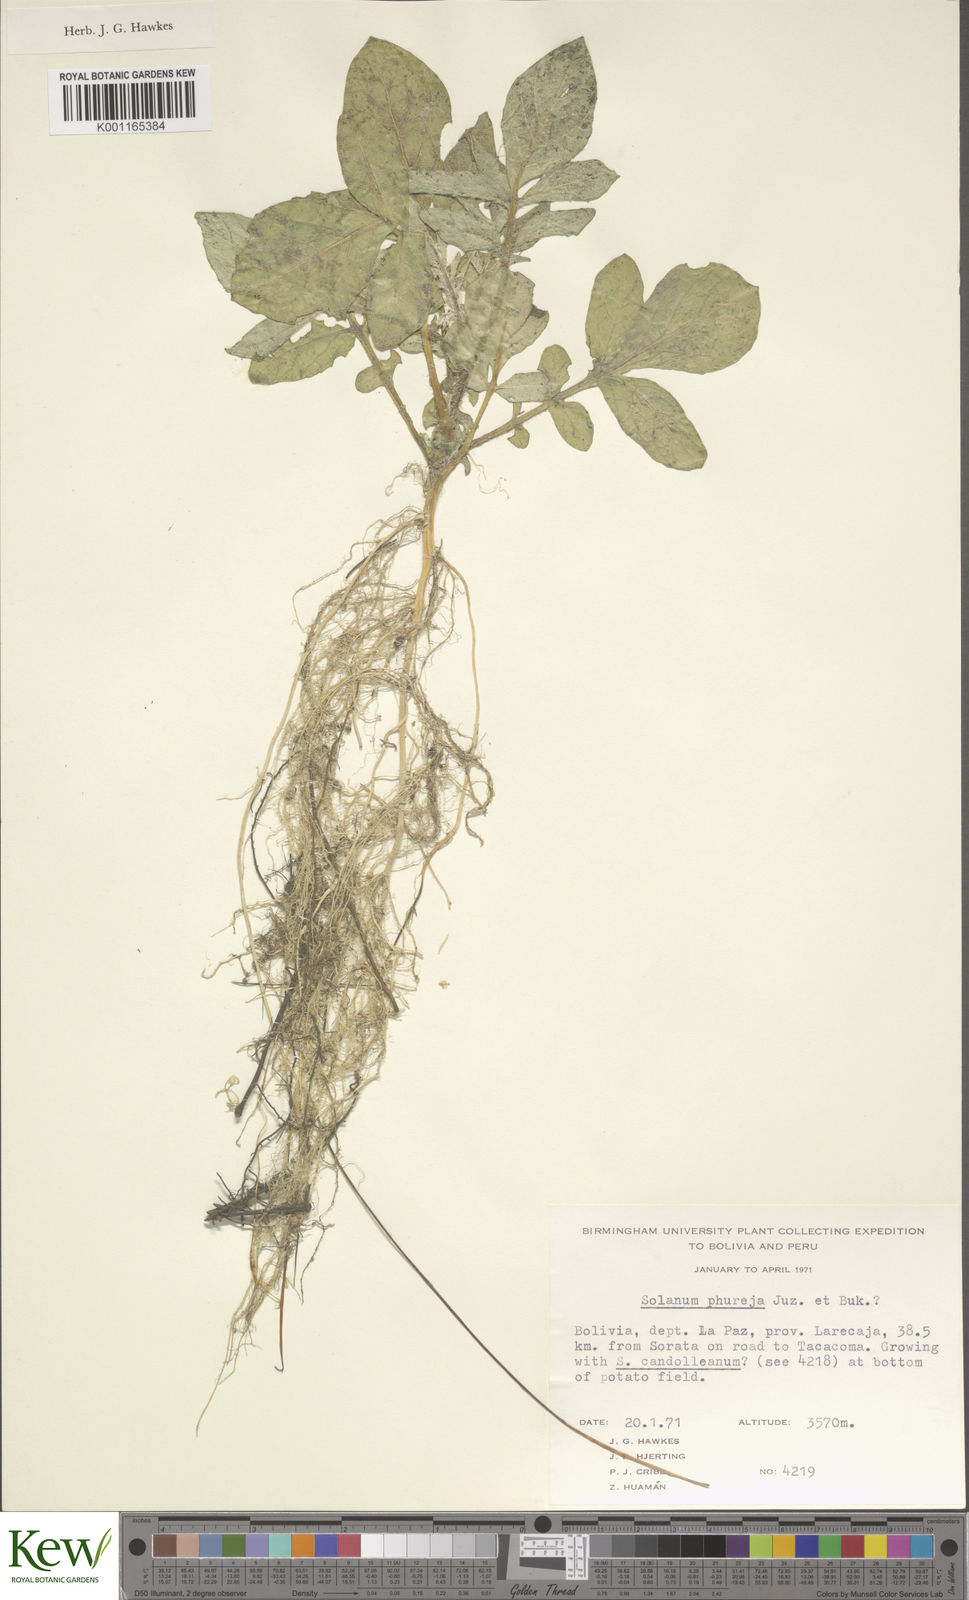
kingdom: Plantae
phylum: Tracheophyta
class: Magnoliopsida
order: Solanales
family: Solanaceae
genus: Solanum
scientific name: Solanum tuberosum
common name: Potato
